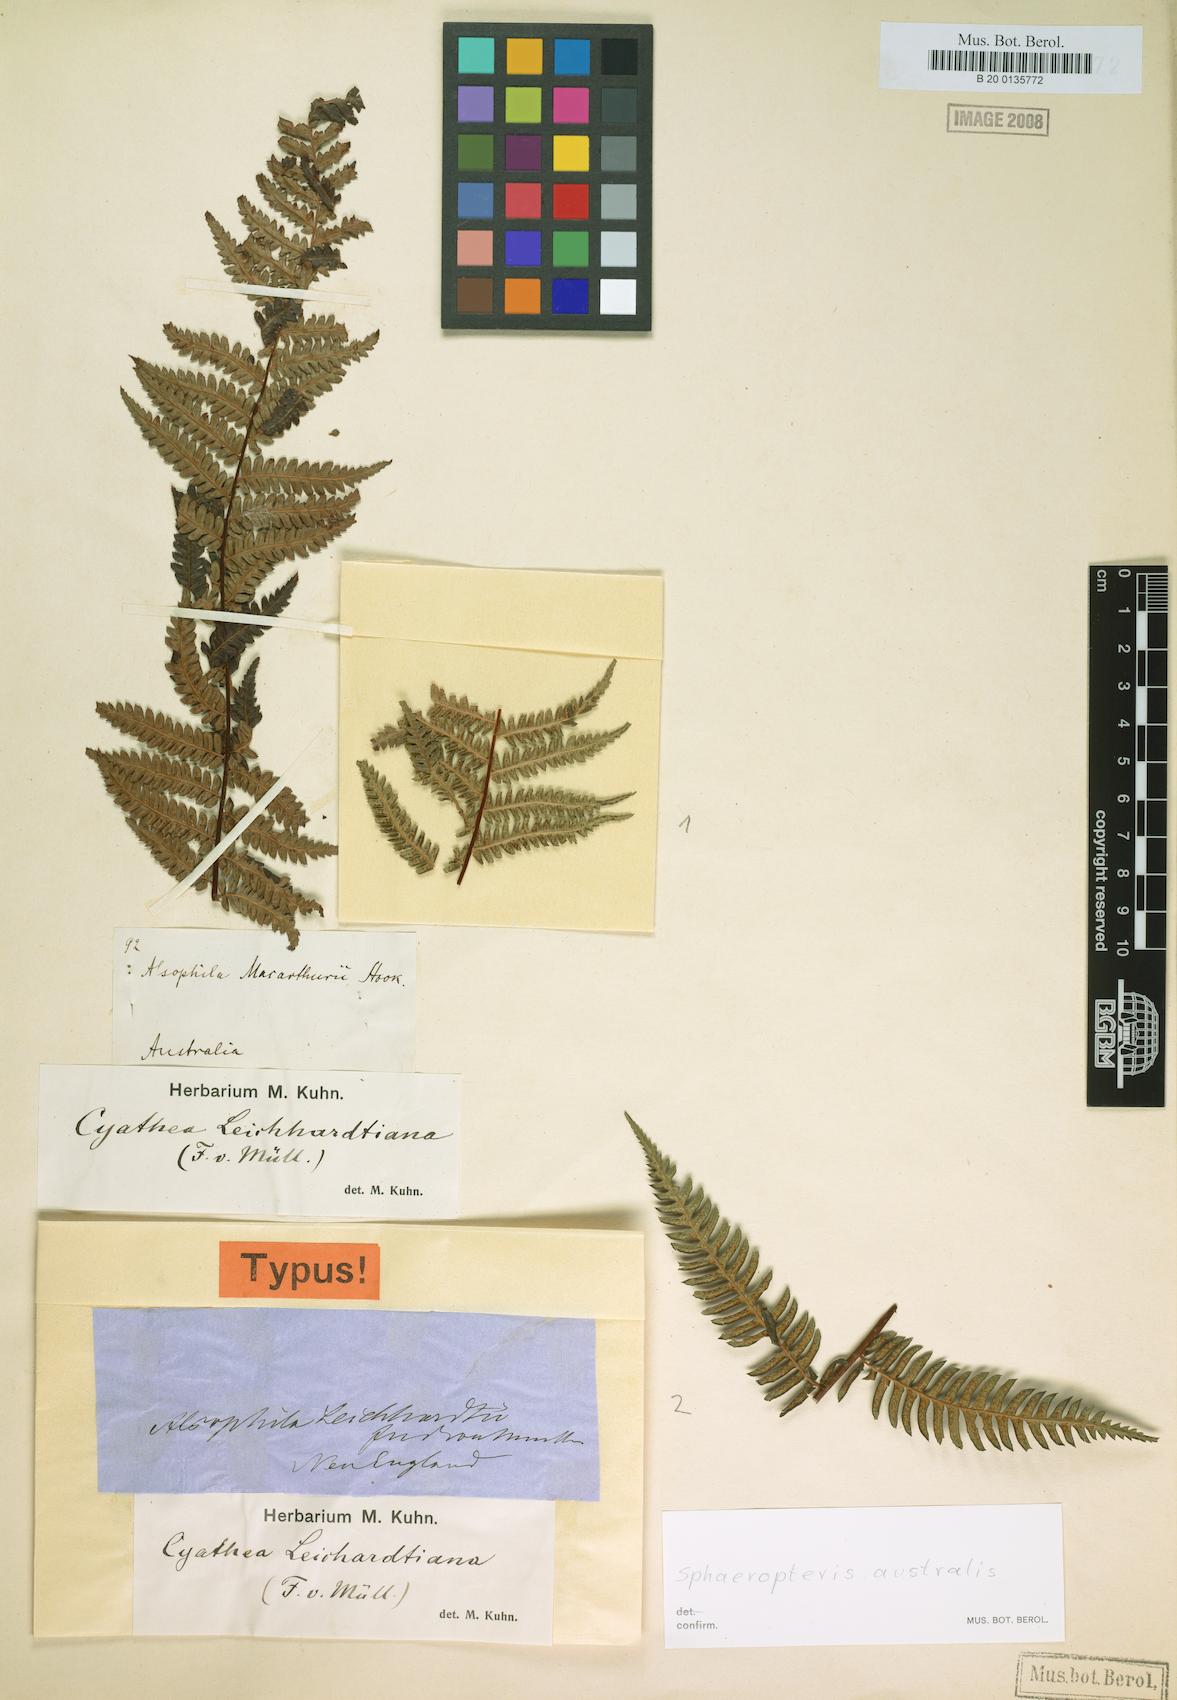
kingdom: Plantae
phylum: Tracheophyta
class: Polypodiopsida
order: Cyatheales
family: Cyatheaceae
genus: Alsophila
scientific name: Alsophila leichhardtiana
